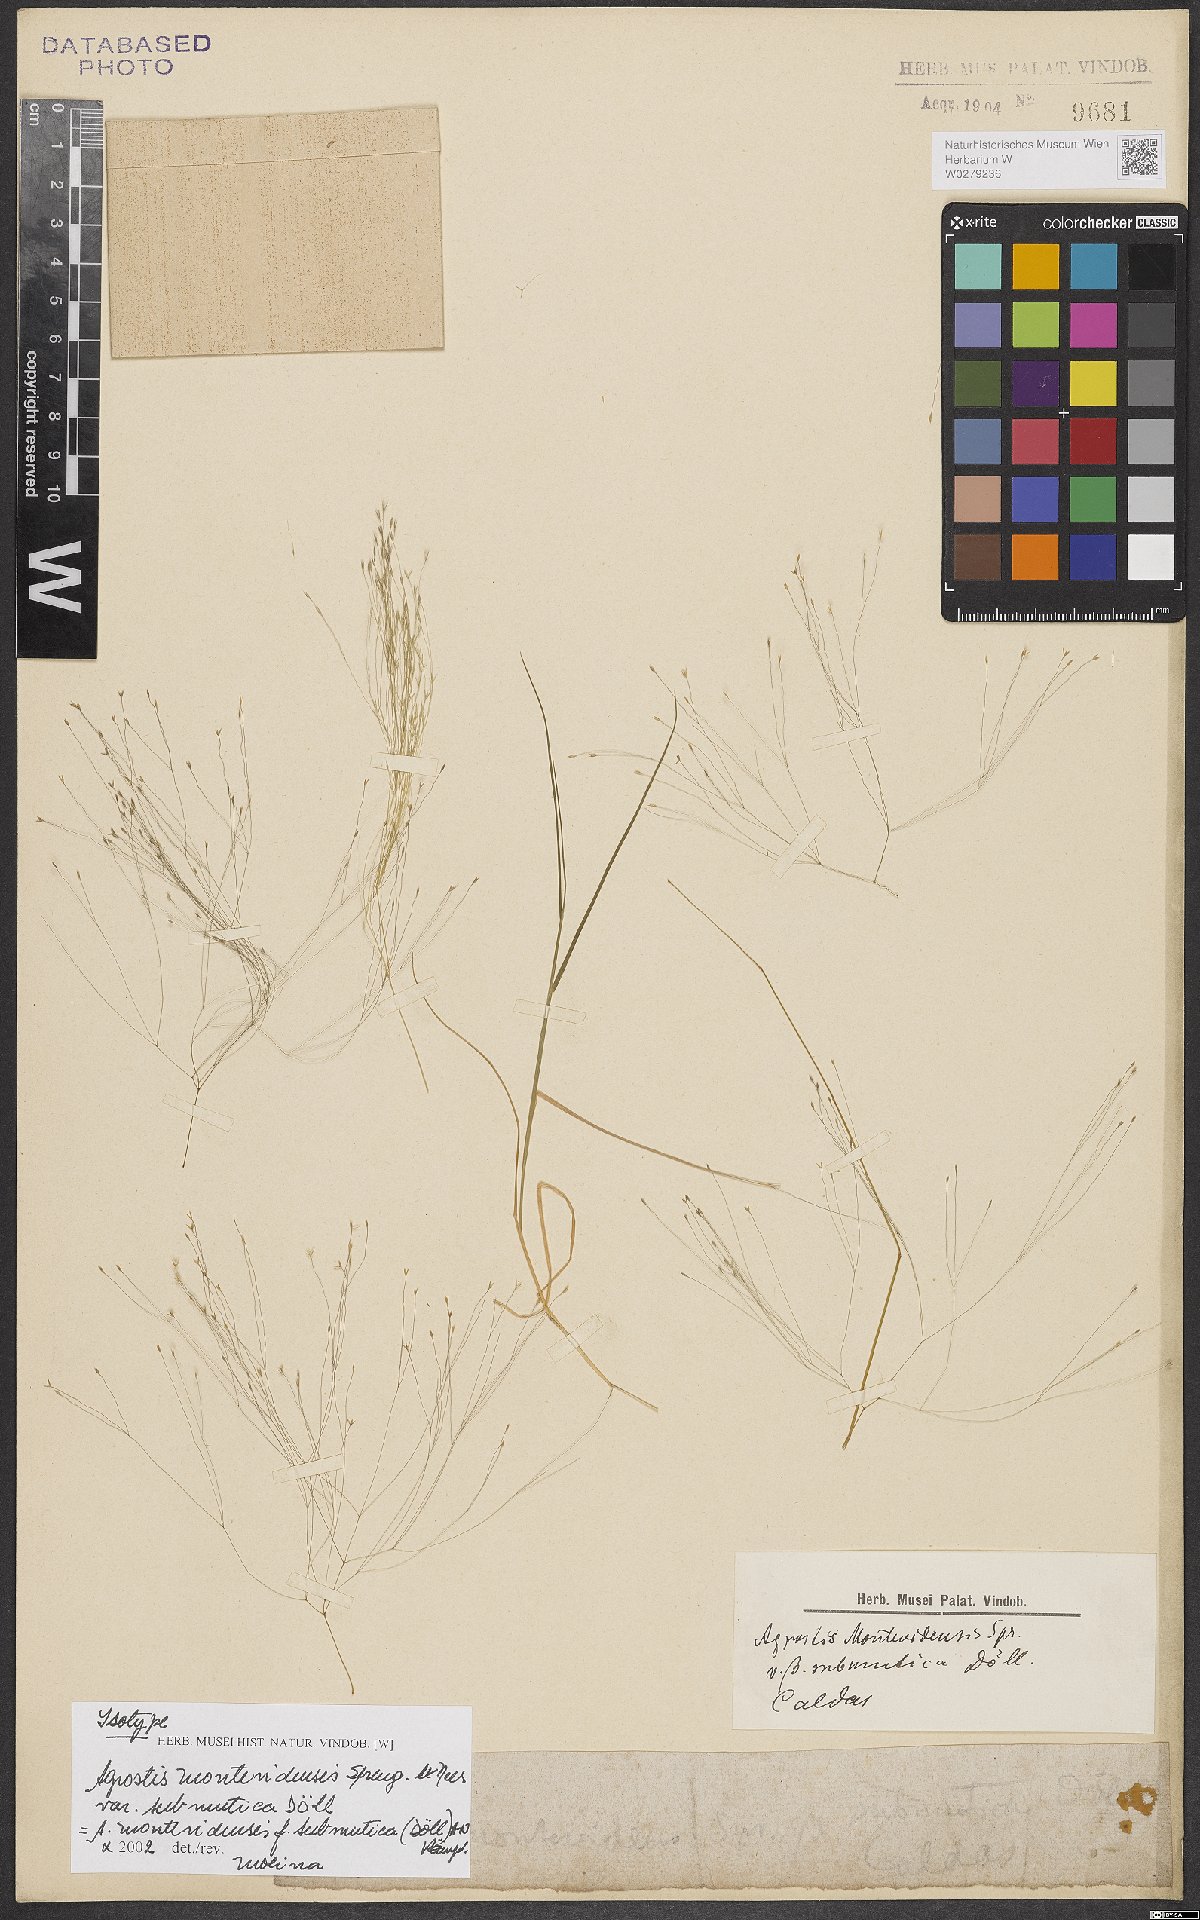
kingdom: Plantae
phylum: Tracheophyta
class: Liliopsida
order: Poales
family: Poaceae
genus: Agrostis
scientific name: Agrostis montevidensis
